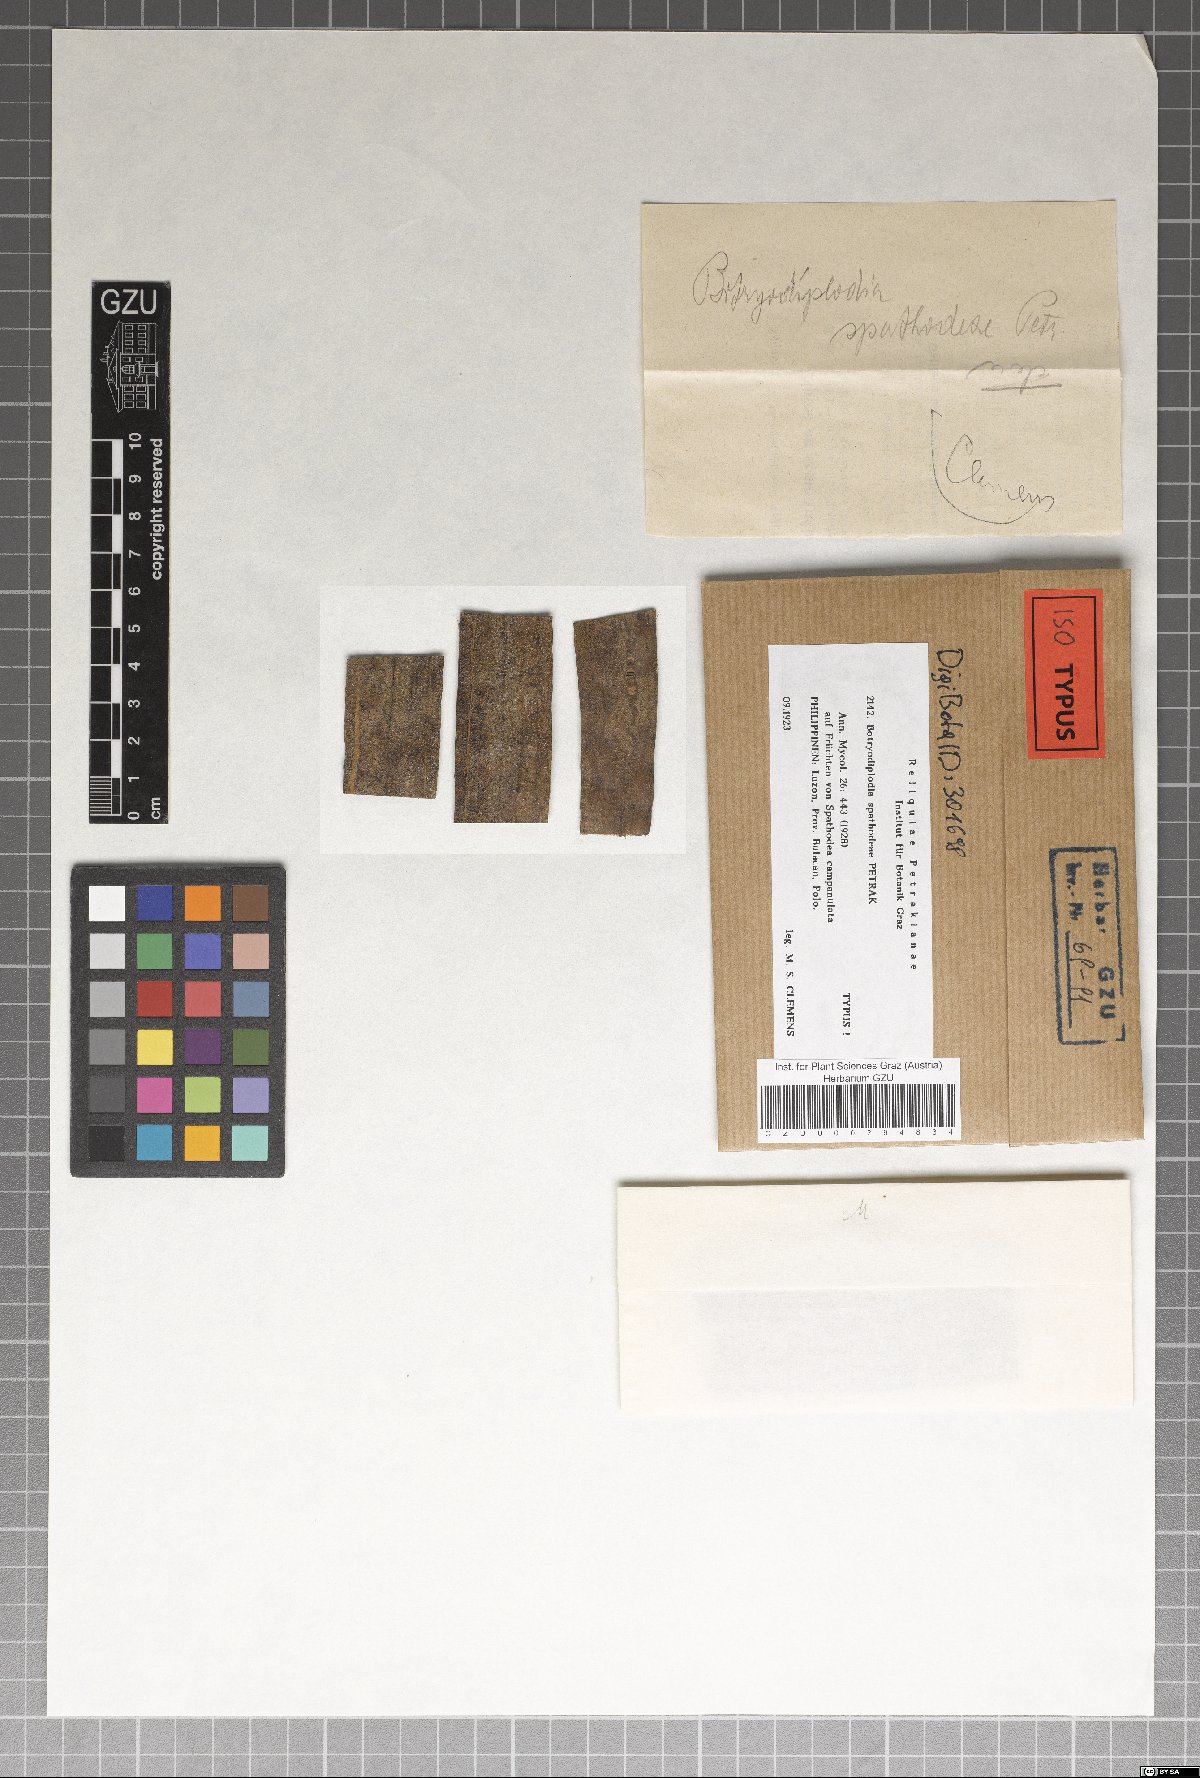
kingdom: Fungi
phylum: Ascomycota
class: Sordariomycetes
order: Diaporthales
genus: Botryodiplodia
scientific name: Botryodiplodia ravenelii
